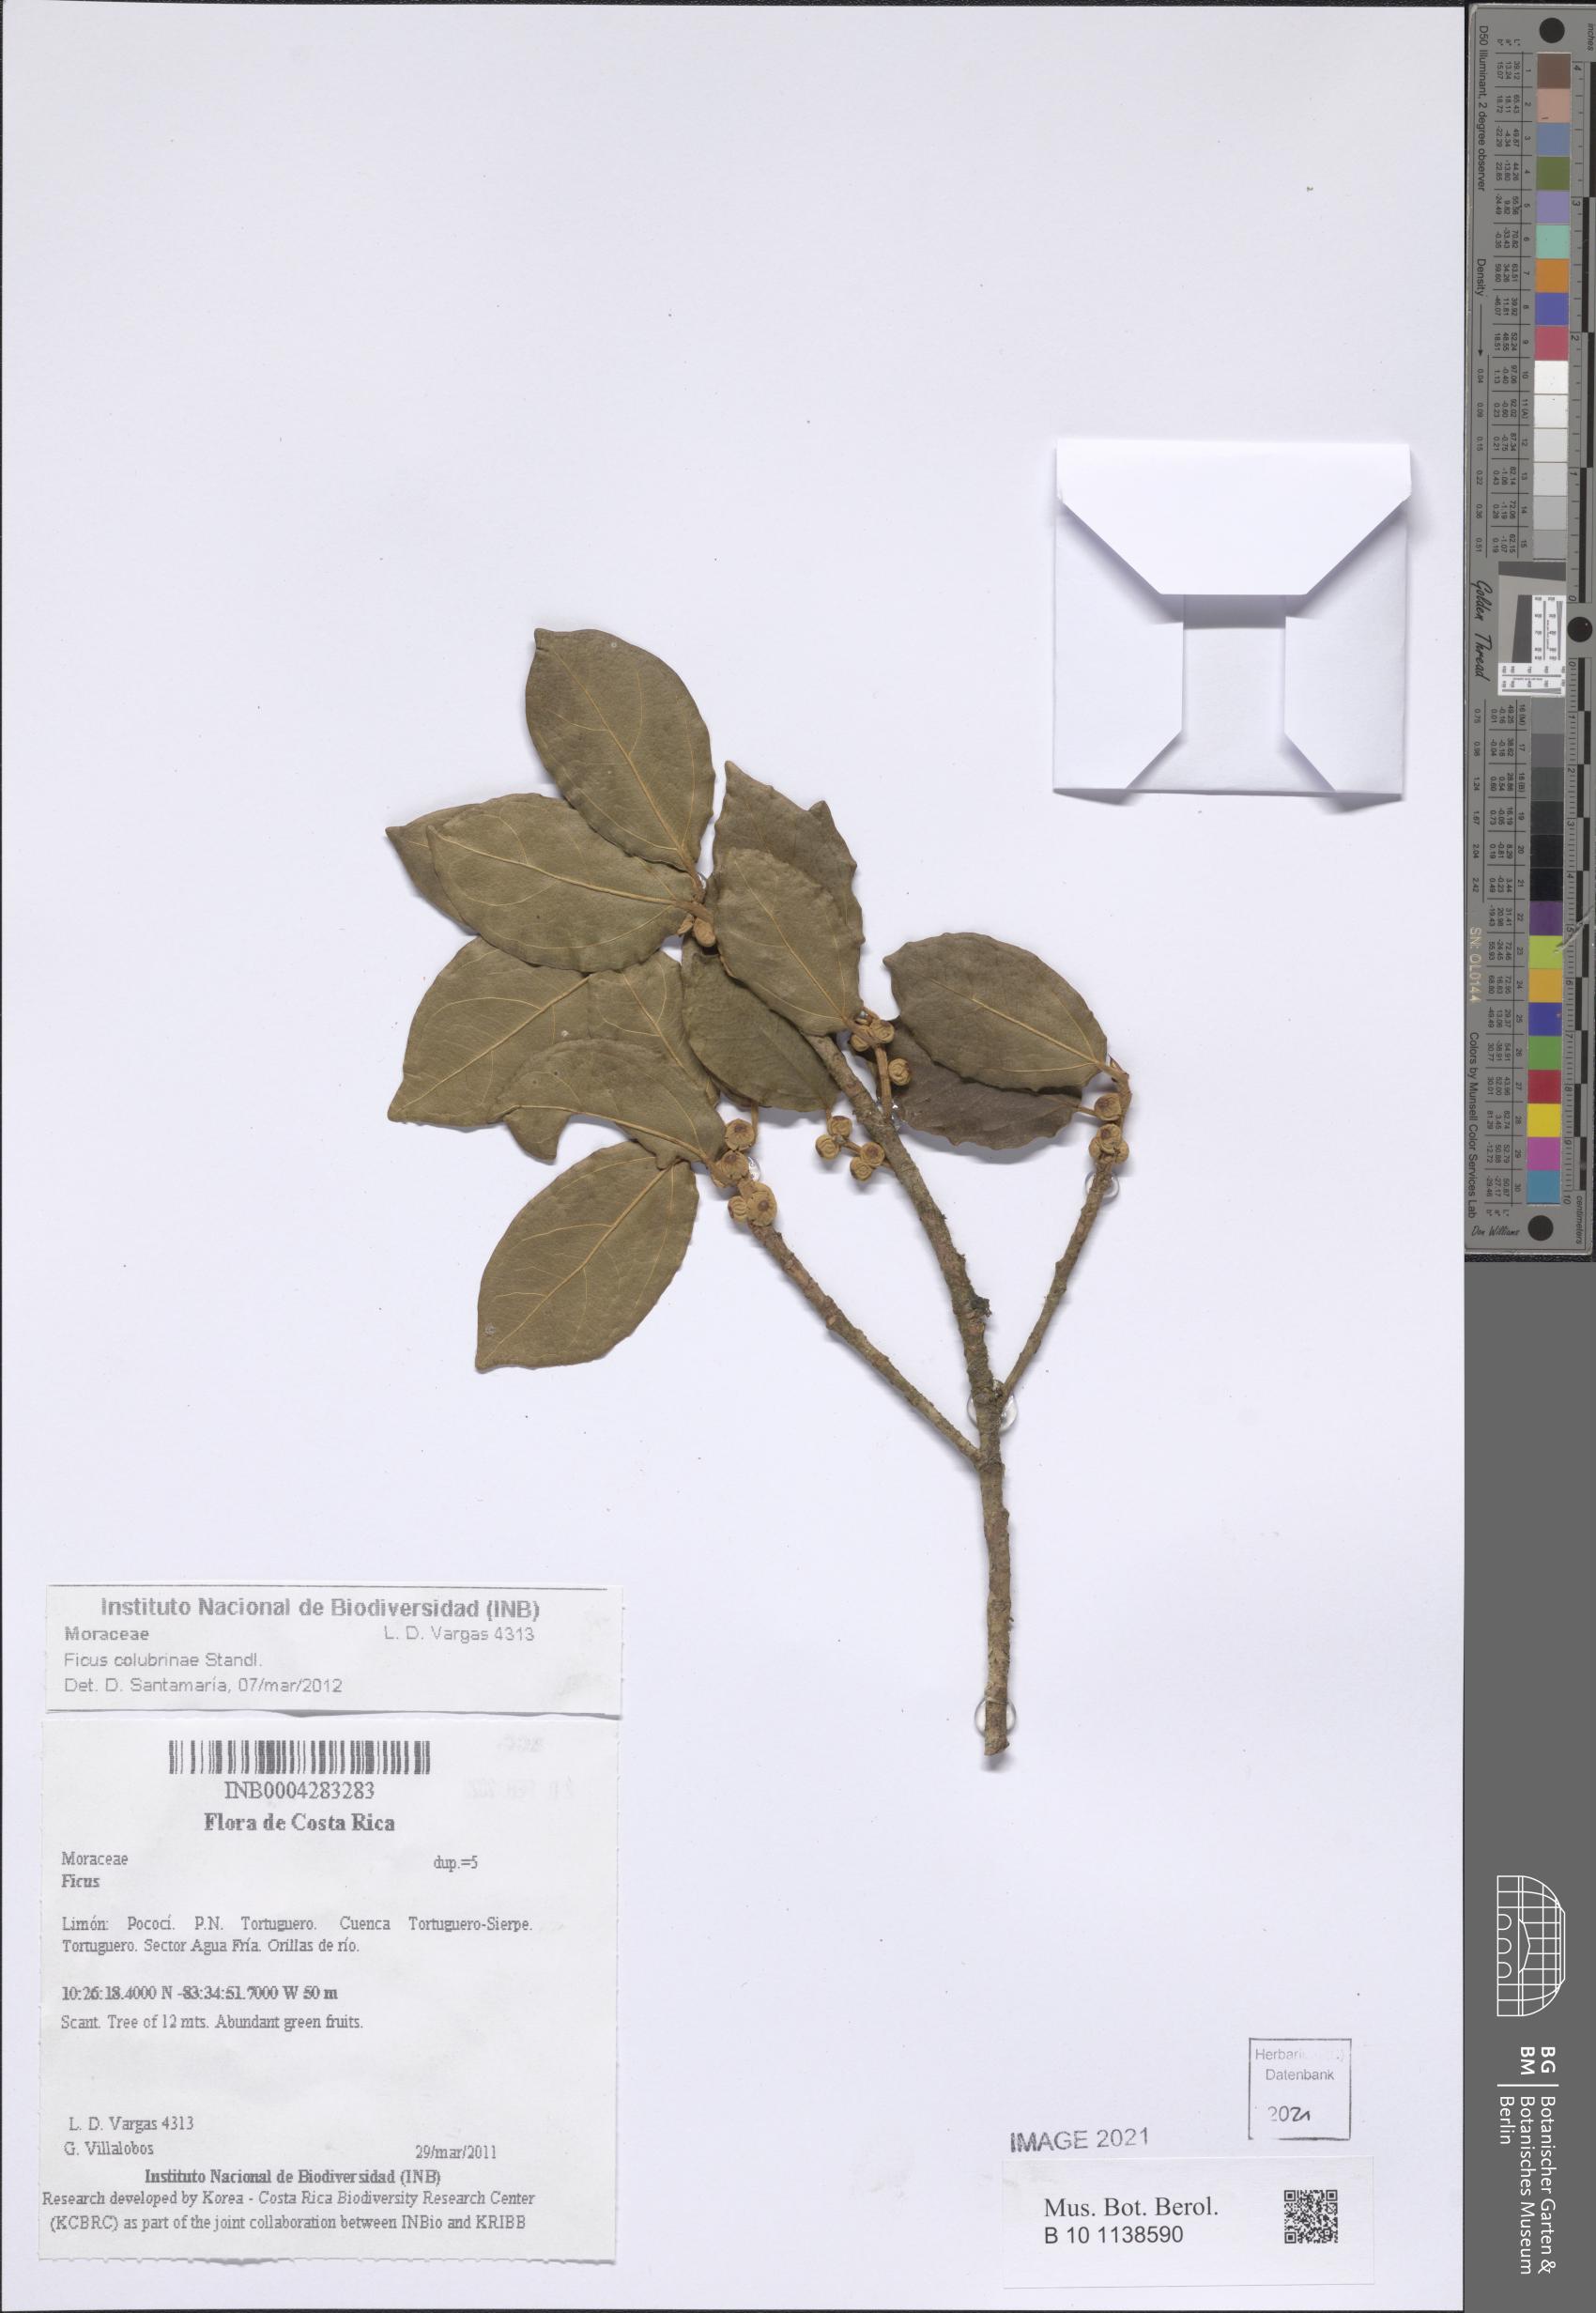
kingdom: Plantae
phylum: Tracheophyta
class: Magnoliopsida
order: Rosales
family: Moraceae
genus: Ficus
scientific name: Ficus colubrinae
